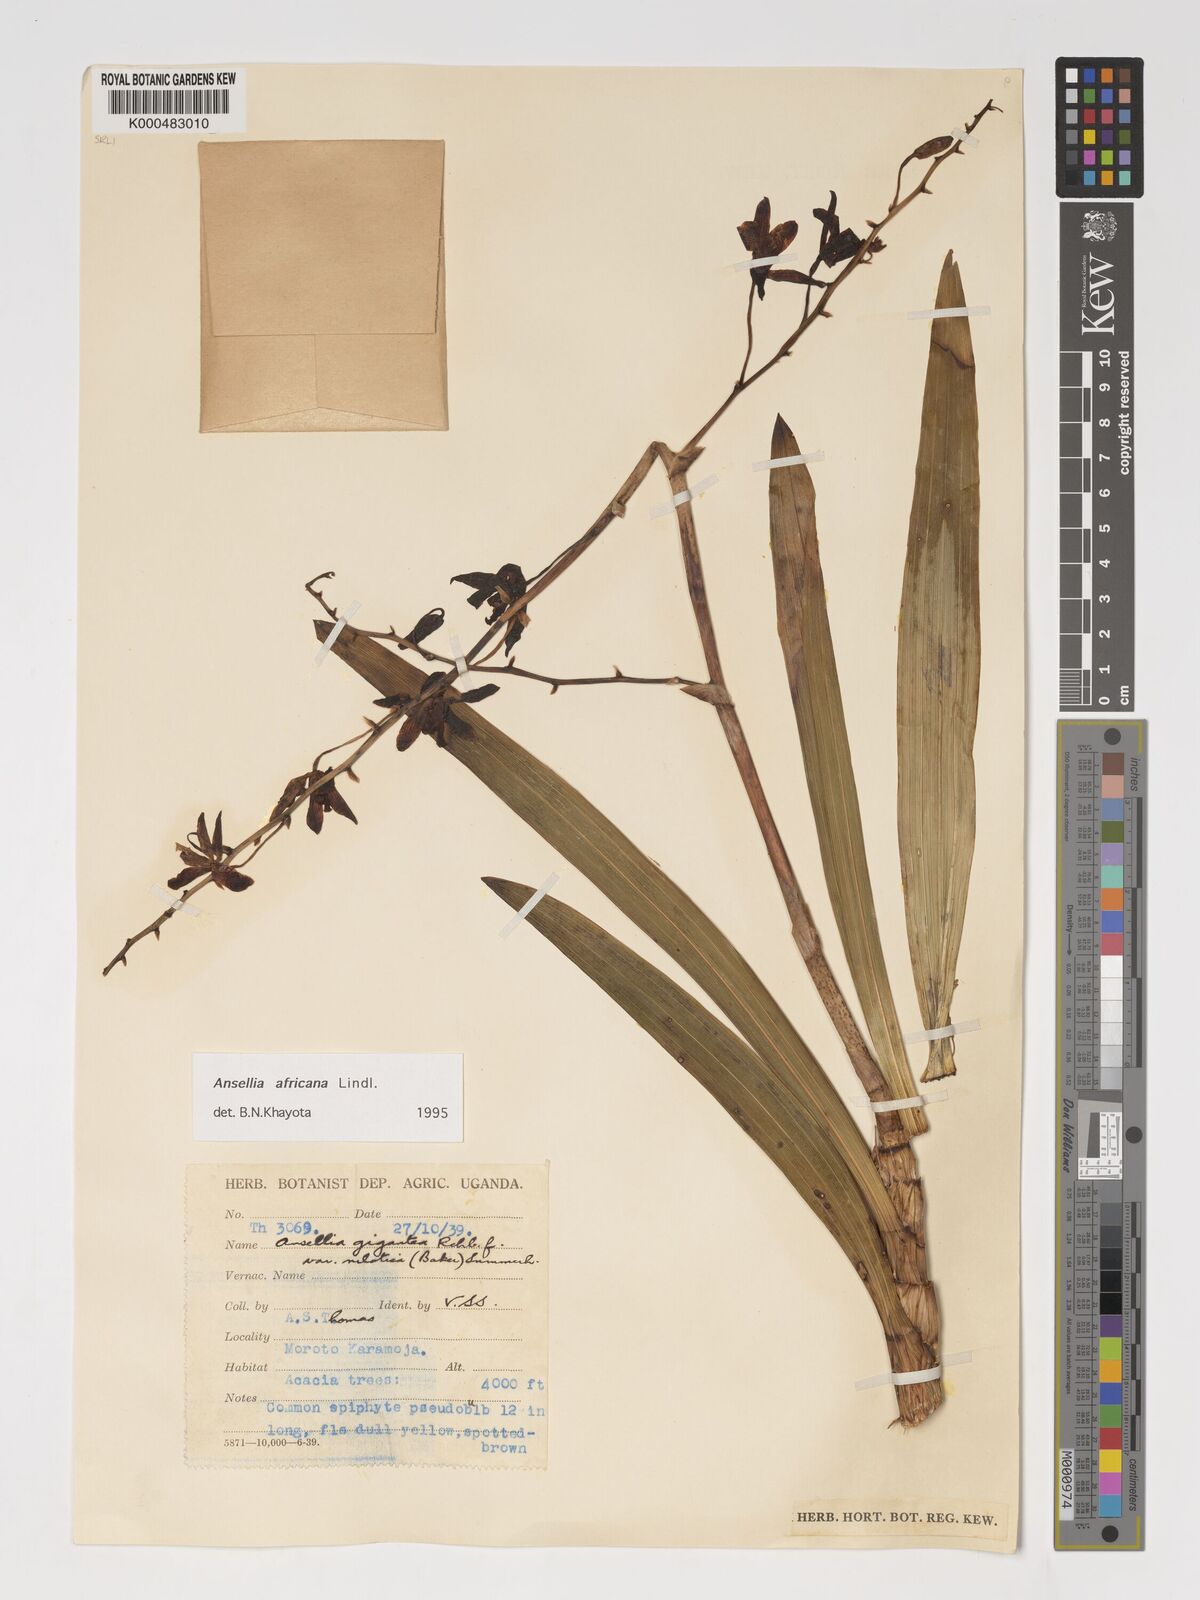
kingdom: Plantae
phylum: Tracheophyta
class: Liliopsida
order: Asparagales
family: Orchidaceae
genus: Ansellia
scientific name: Ansellia africana
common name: African ansellia
